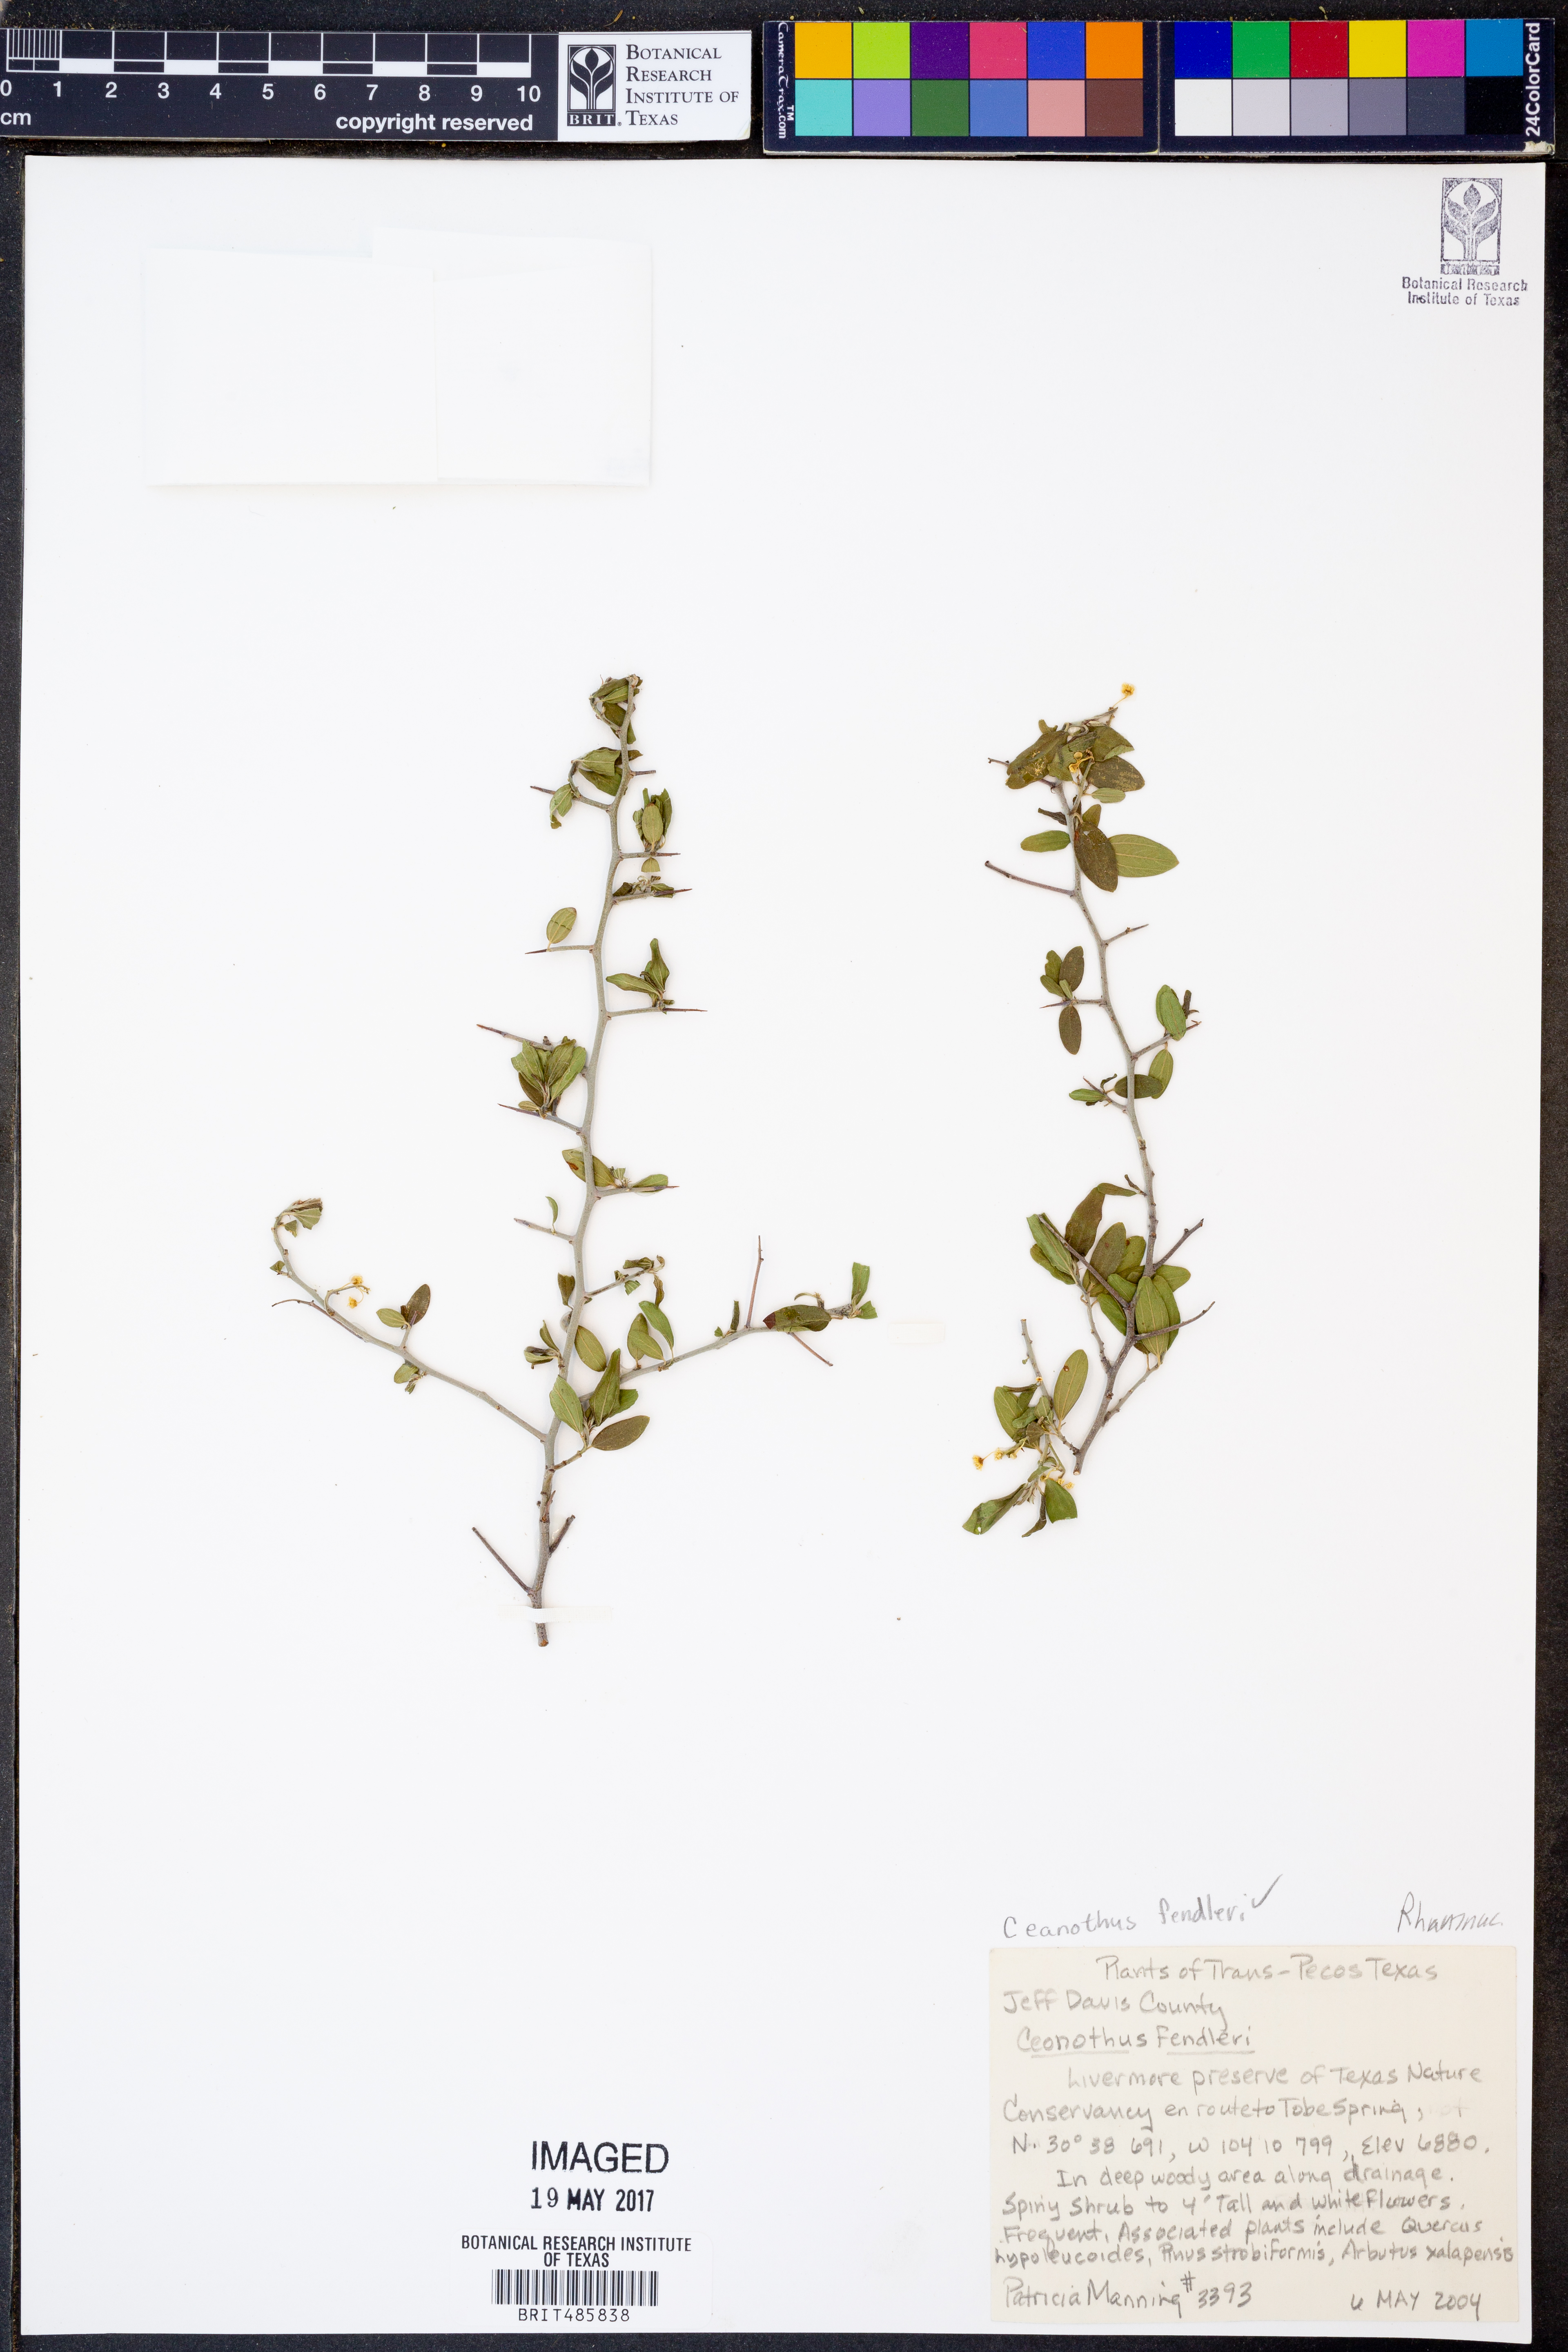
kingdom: Plantae
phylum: Tracheophyta
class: Magnoliopsida
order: Rosales
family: Rhamnaceae
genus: Ceanothus
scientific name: Ceanothus fendleri
